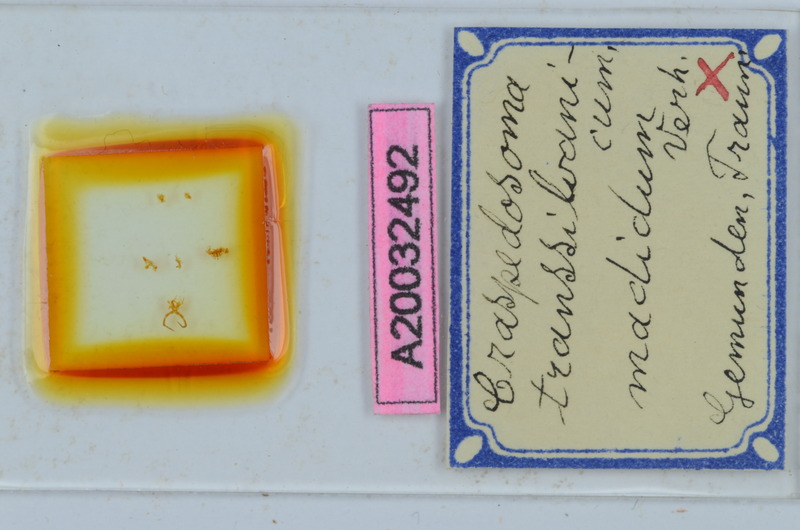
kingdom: Animalia
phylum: Arthropoda
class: Diplopoda
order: Chordeumatida
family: Craspedosomatidae
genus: Craspedosoma
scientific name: Craspedosoma transsilvanicum
